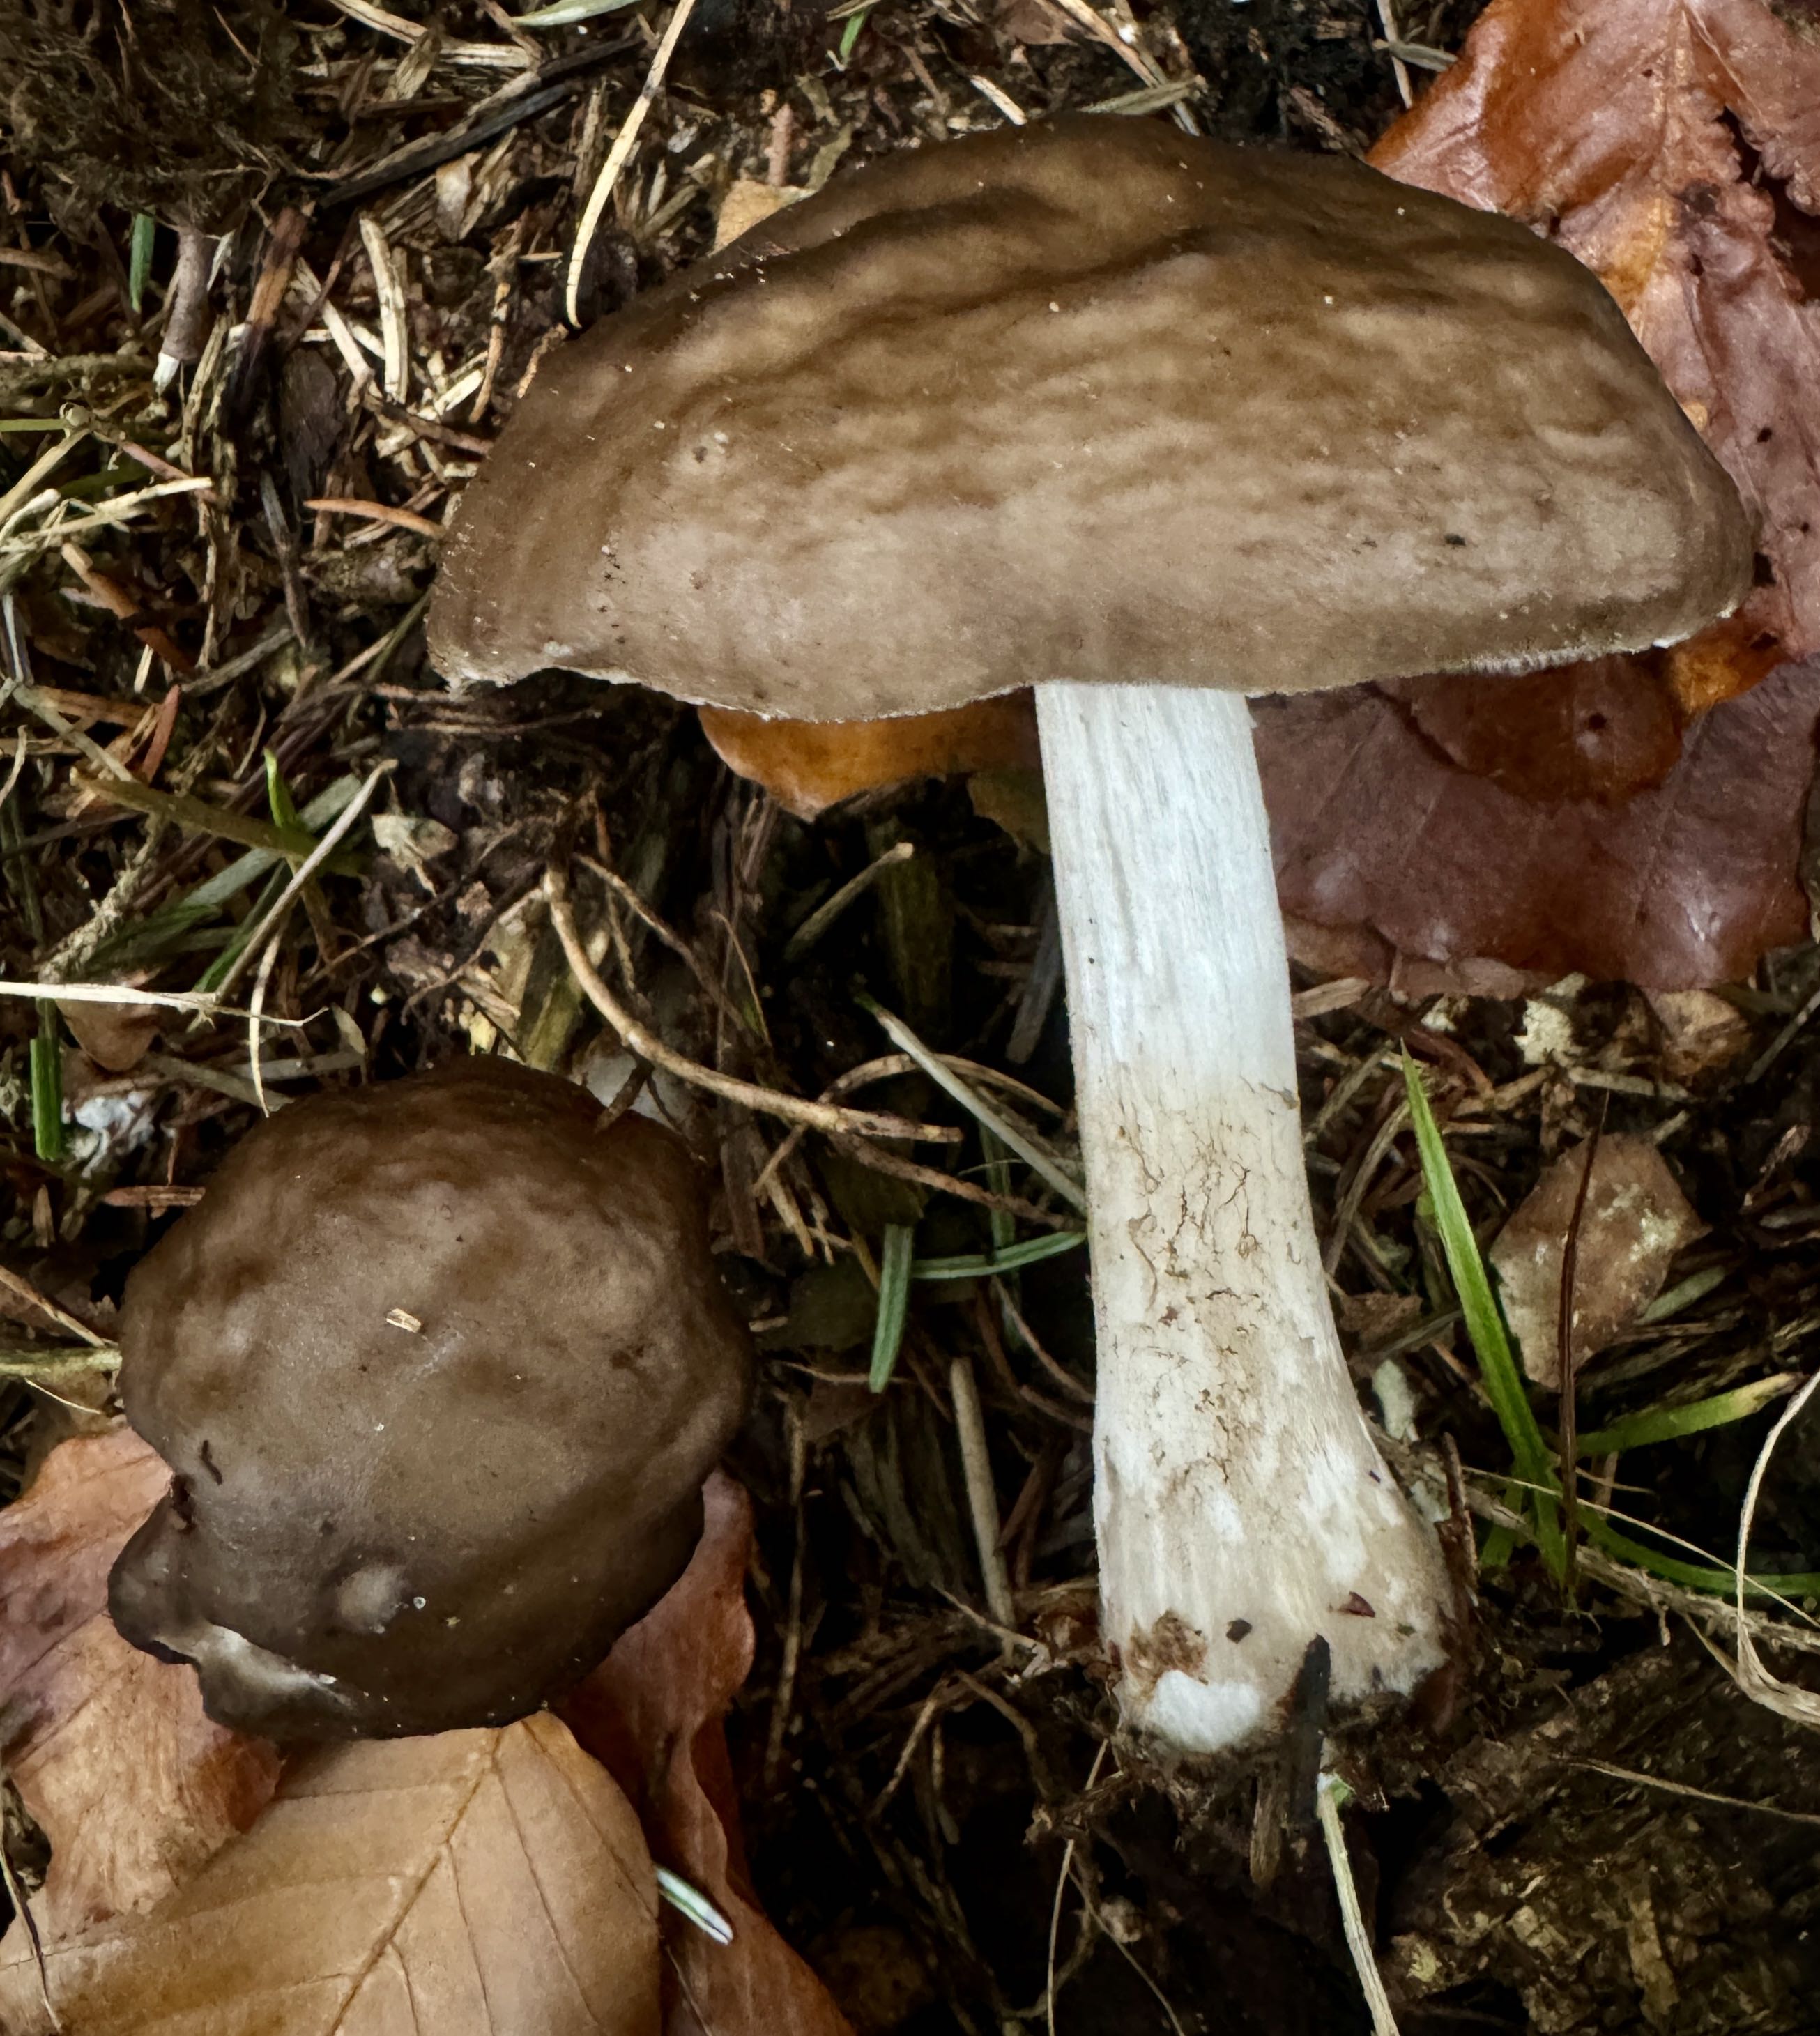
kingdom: Fungi
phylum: Basidiomycota
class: Agaricomycetes
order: Agaricales
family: Pluteaceae
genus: Pluteus
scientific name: Pluteus cervinus
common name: sodfarvet skærmhat
